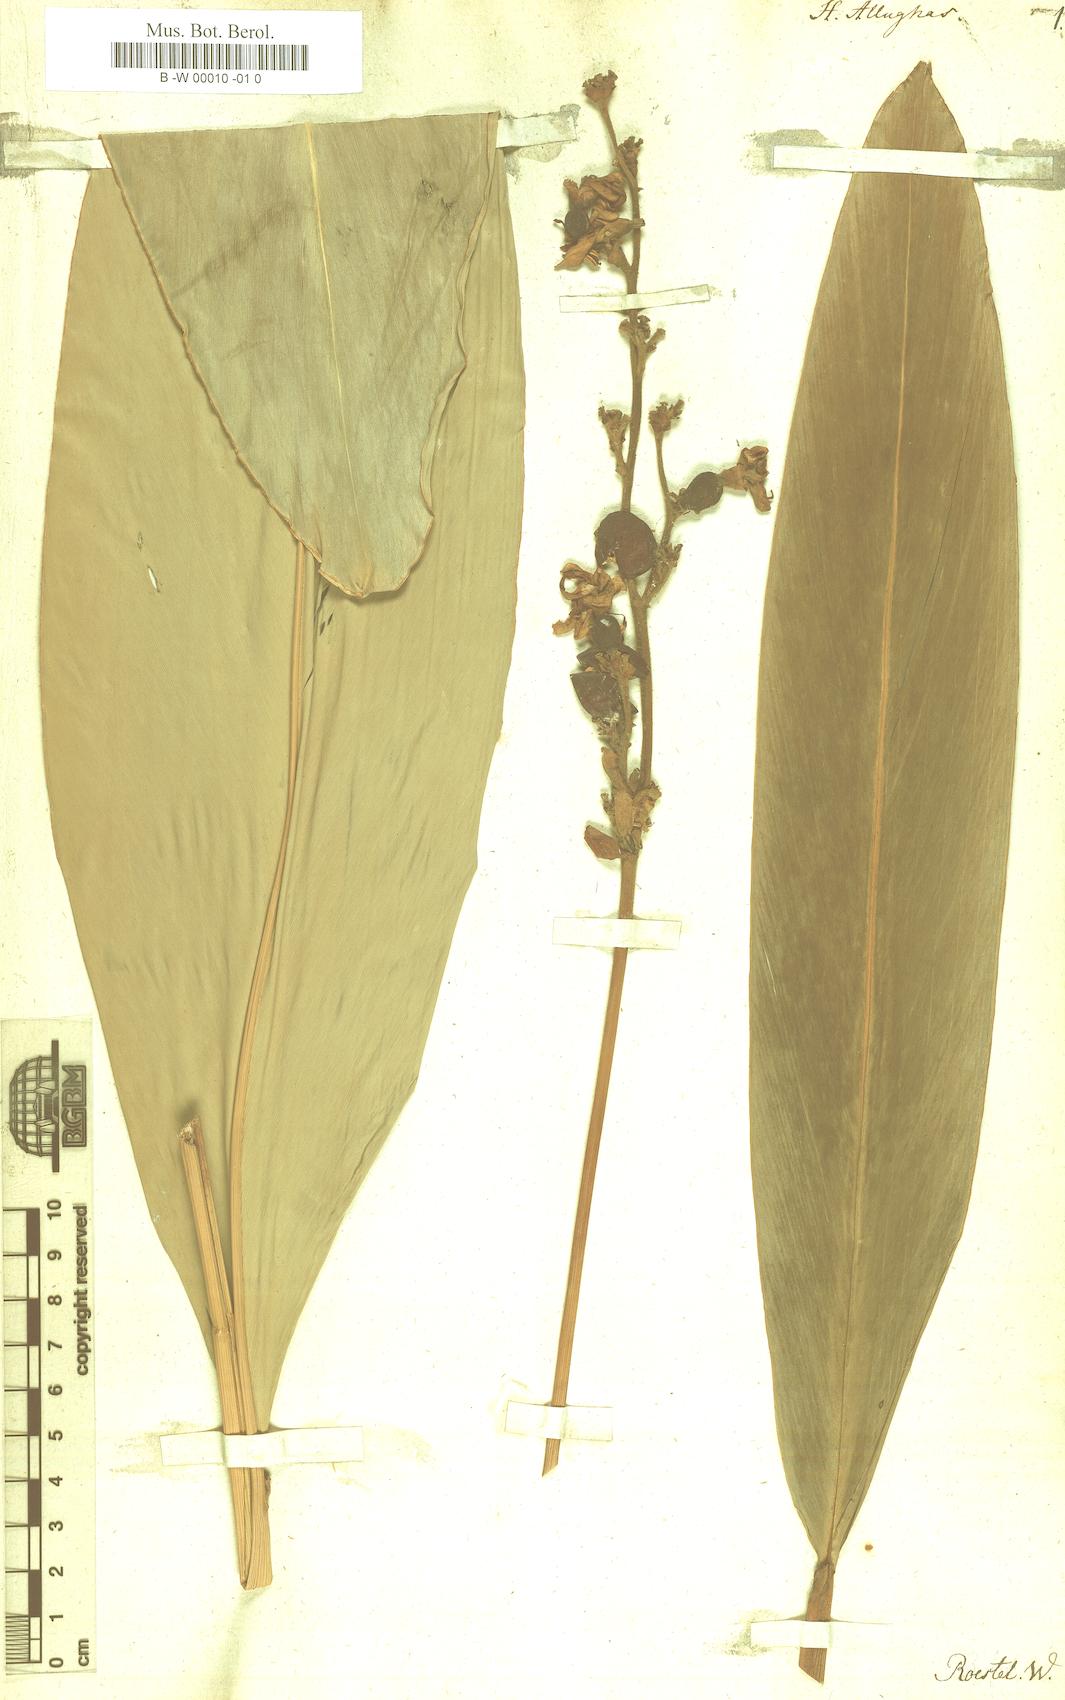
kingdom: Plantae
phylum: Tracheophyta
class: Liliopsida
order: Zingiberales
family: Zingiberaceae
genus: Alpinia
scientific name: Alpinia nigra
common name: Black fruited galanga
